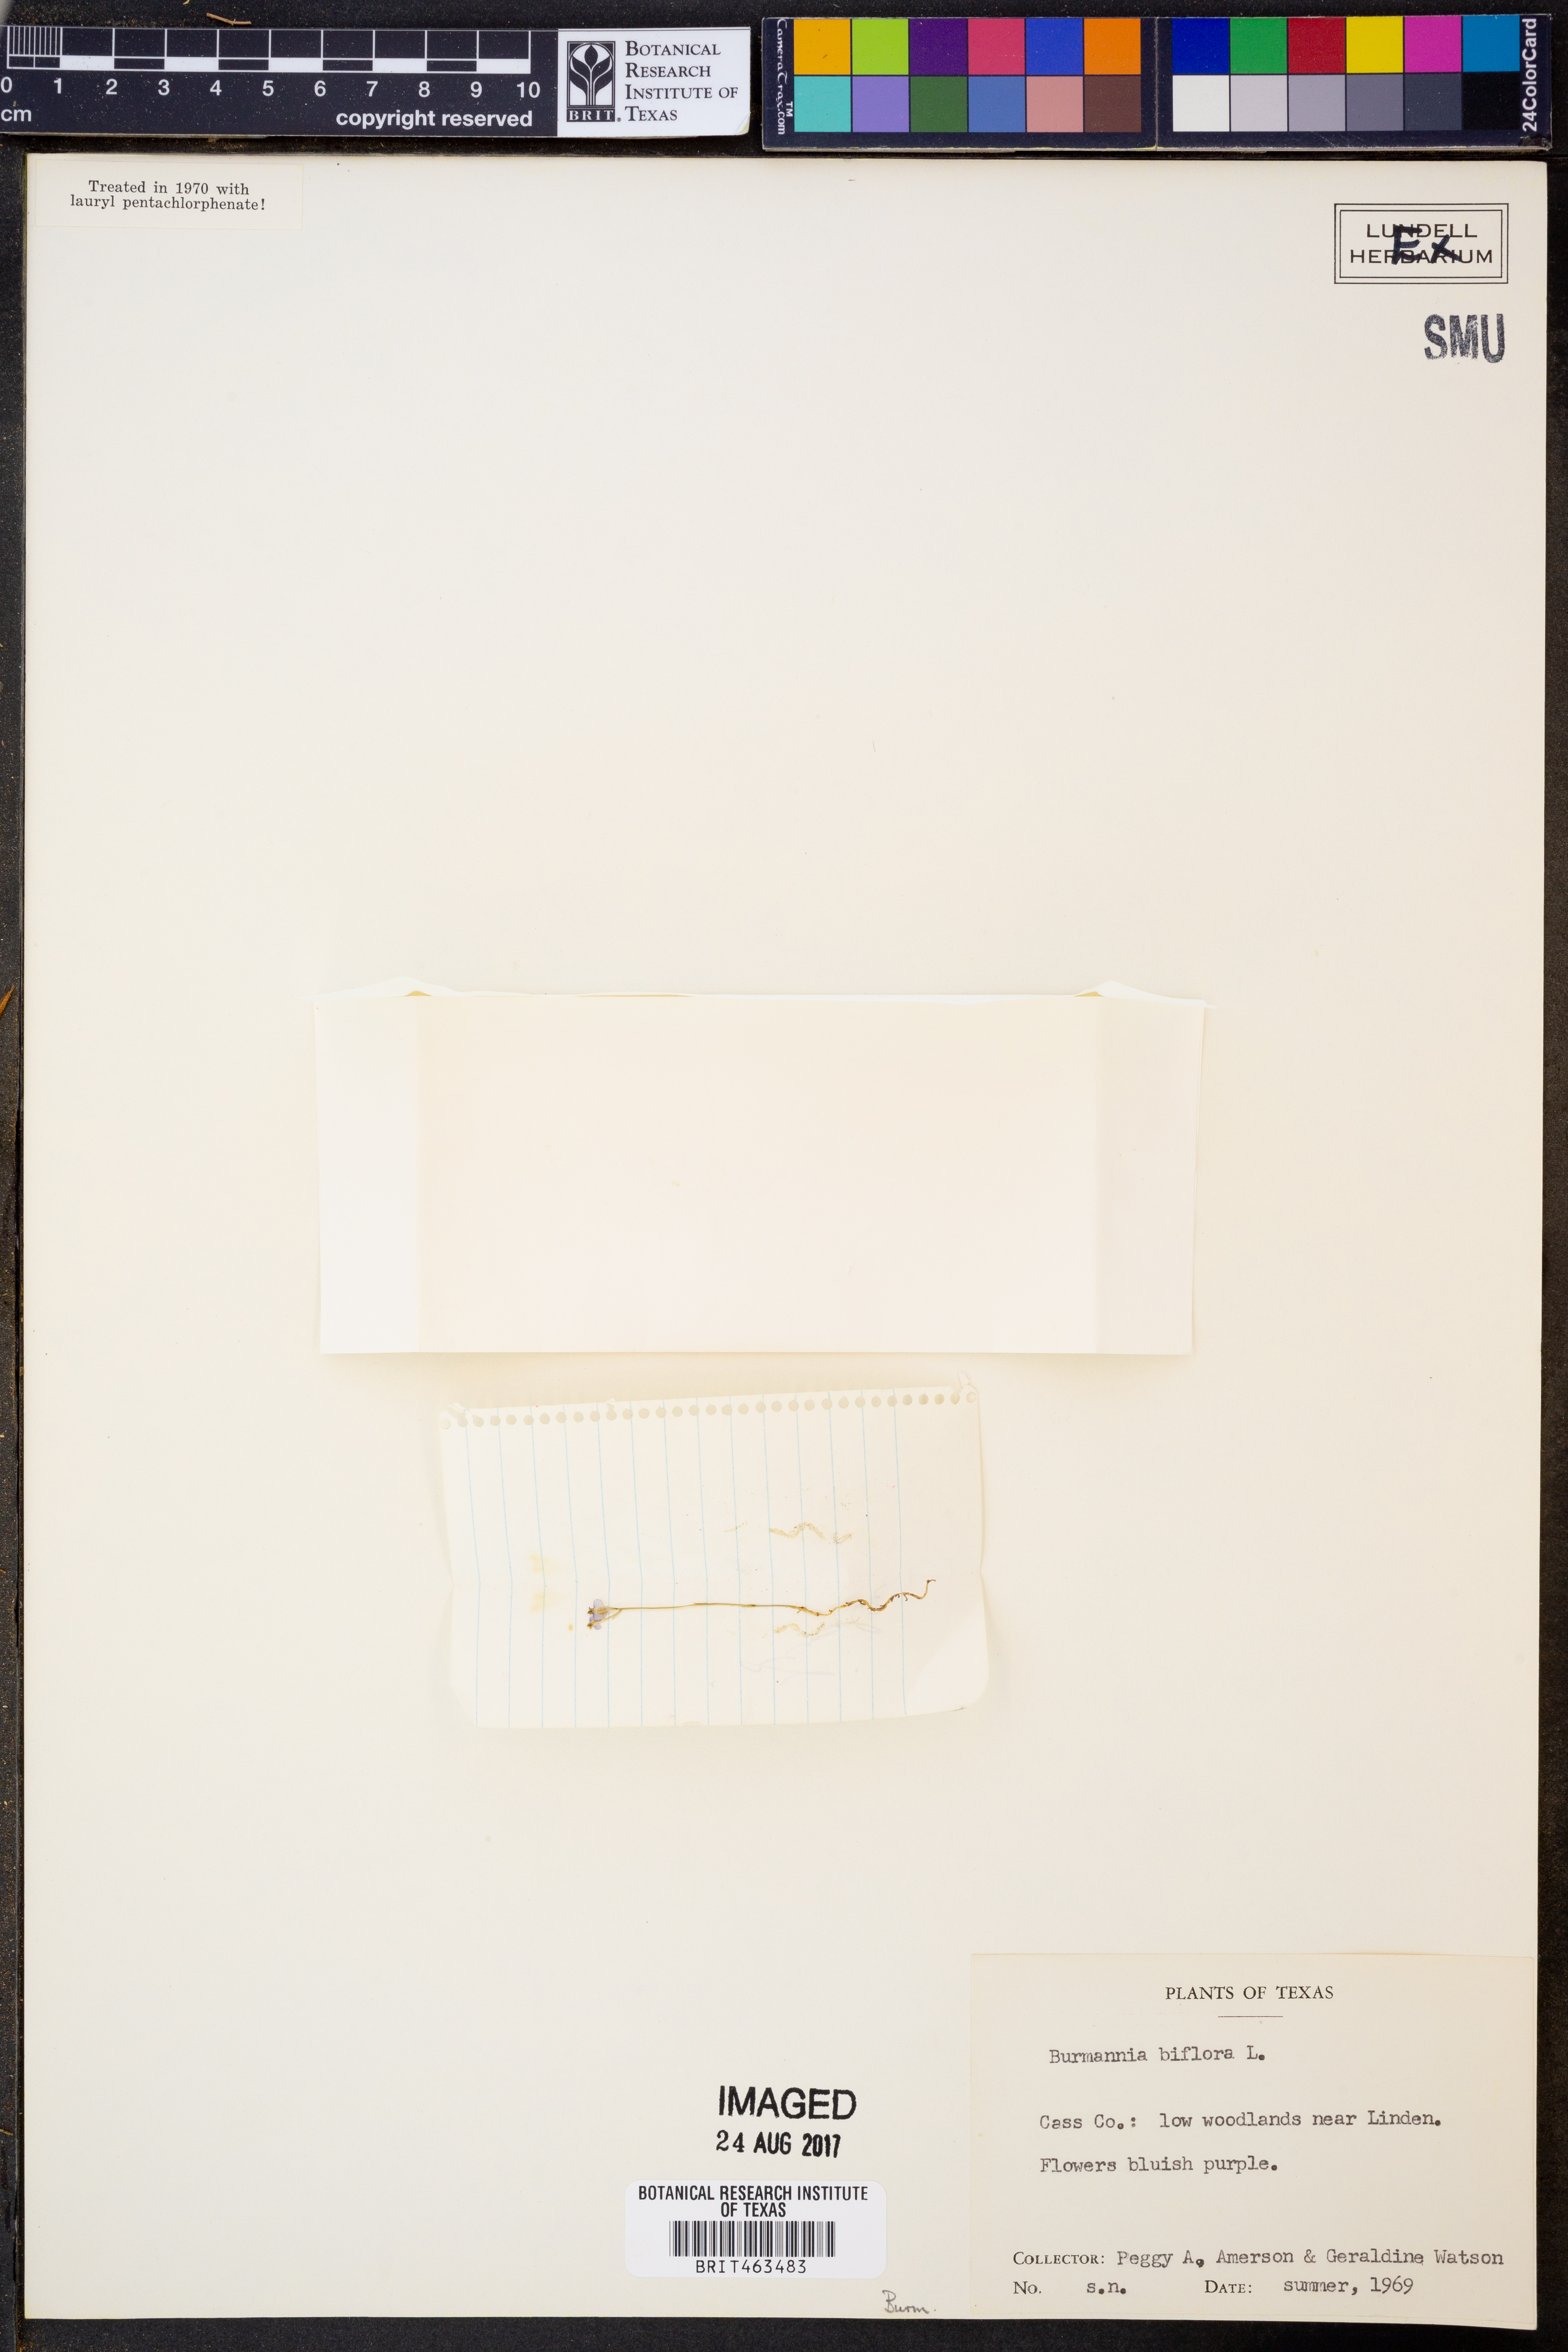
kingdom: Plantae
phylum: Tracheophyta
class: Liliopsida
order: Dioscoreales
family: Burmanniaceae
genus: Burmannia
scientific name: Burmannia biflora
